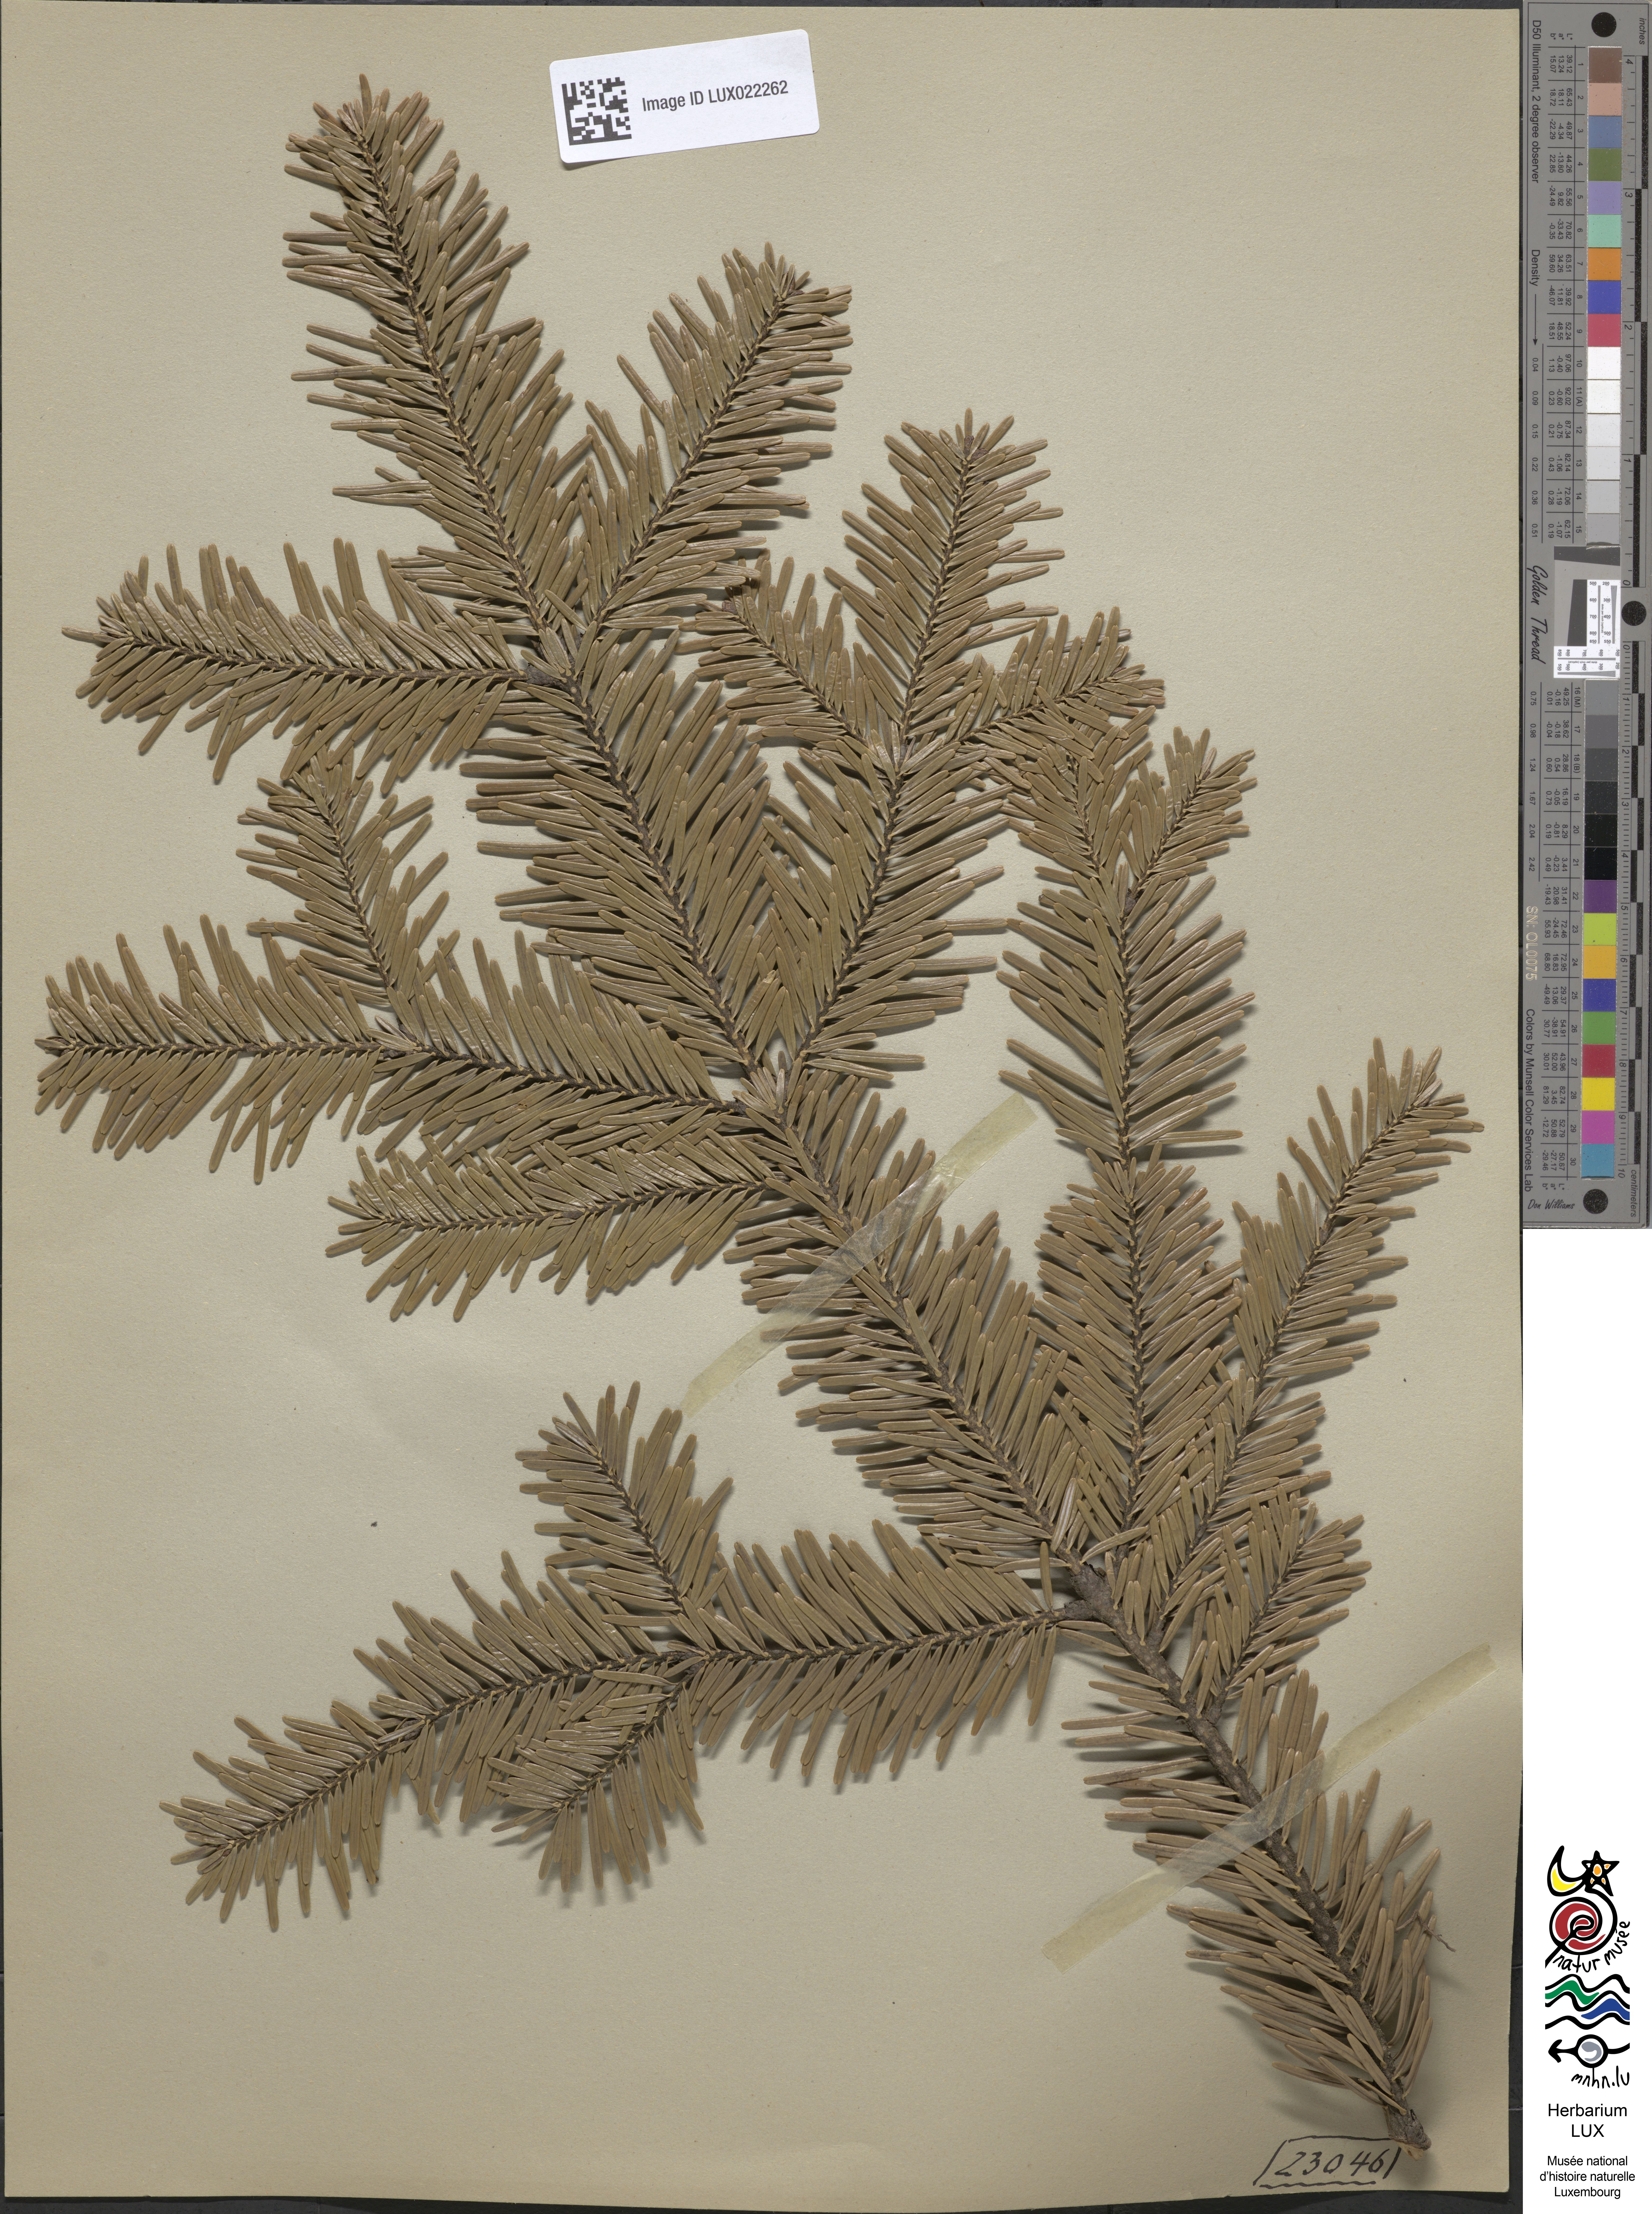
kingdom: Plantae
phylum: Tracheophyta
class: Pinopsida
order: Pinales
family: Pinaceae
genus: Abies
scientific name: Abies alba
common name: Silver fir
